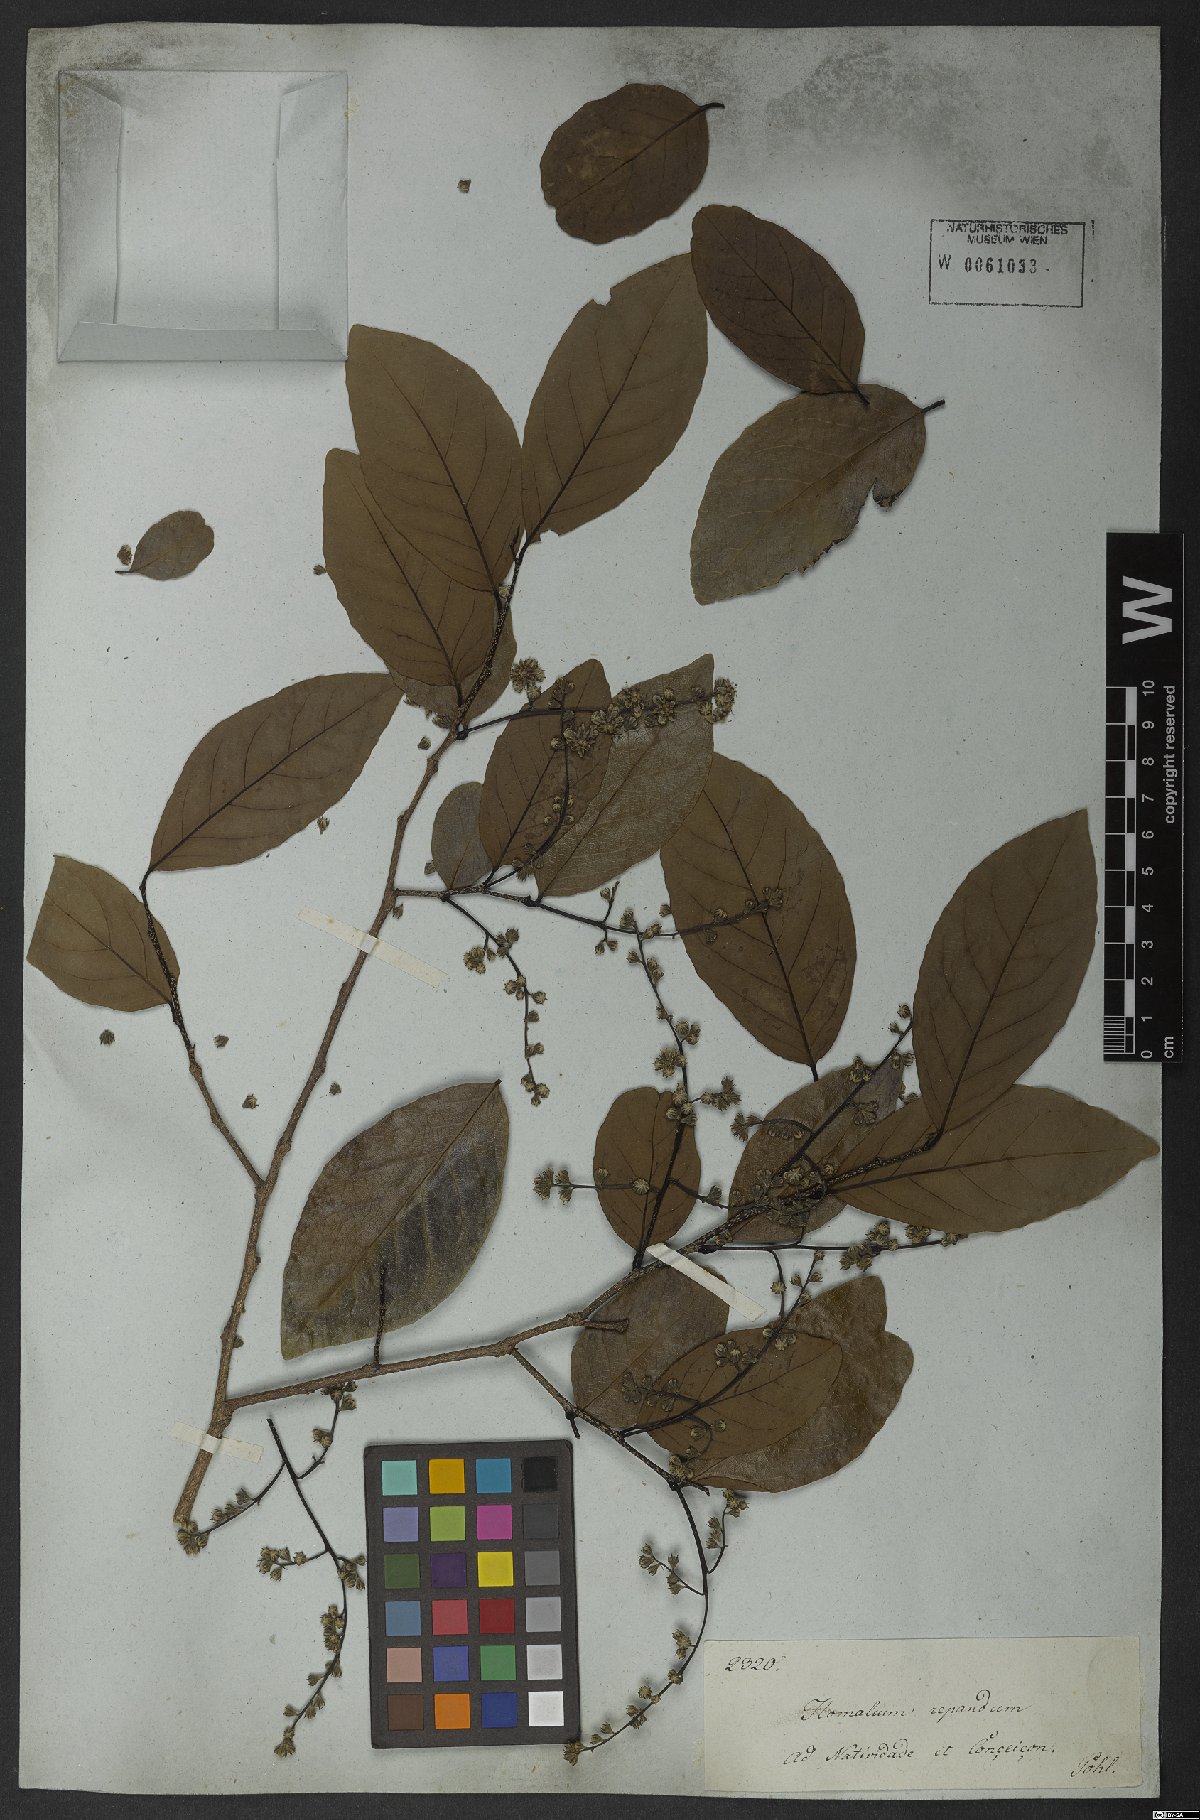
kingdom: Plantae
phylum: Tracheophyta
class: Magnoliopsida
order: Malpighiales
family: Salicaceae
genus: Homalium
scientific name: Homalium
